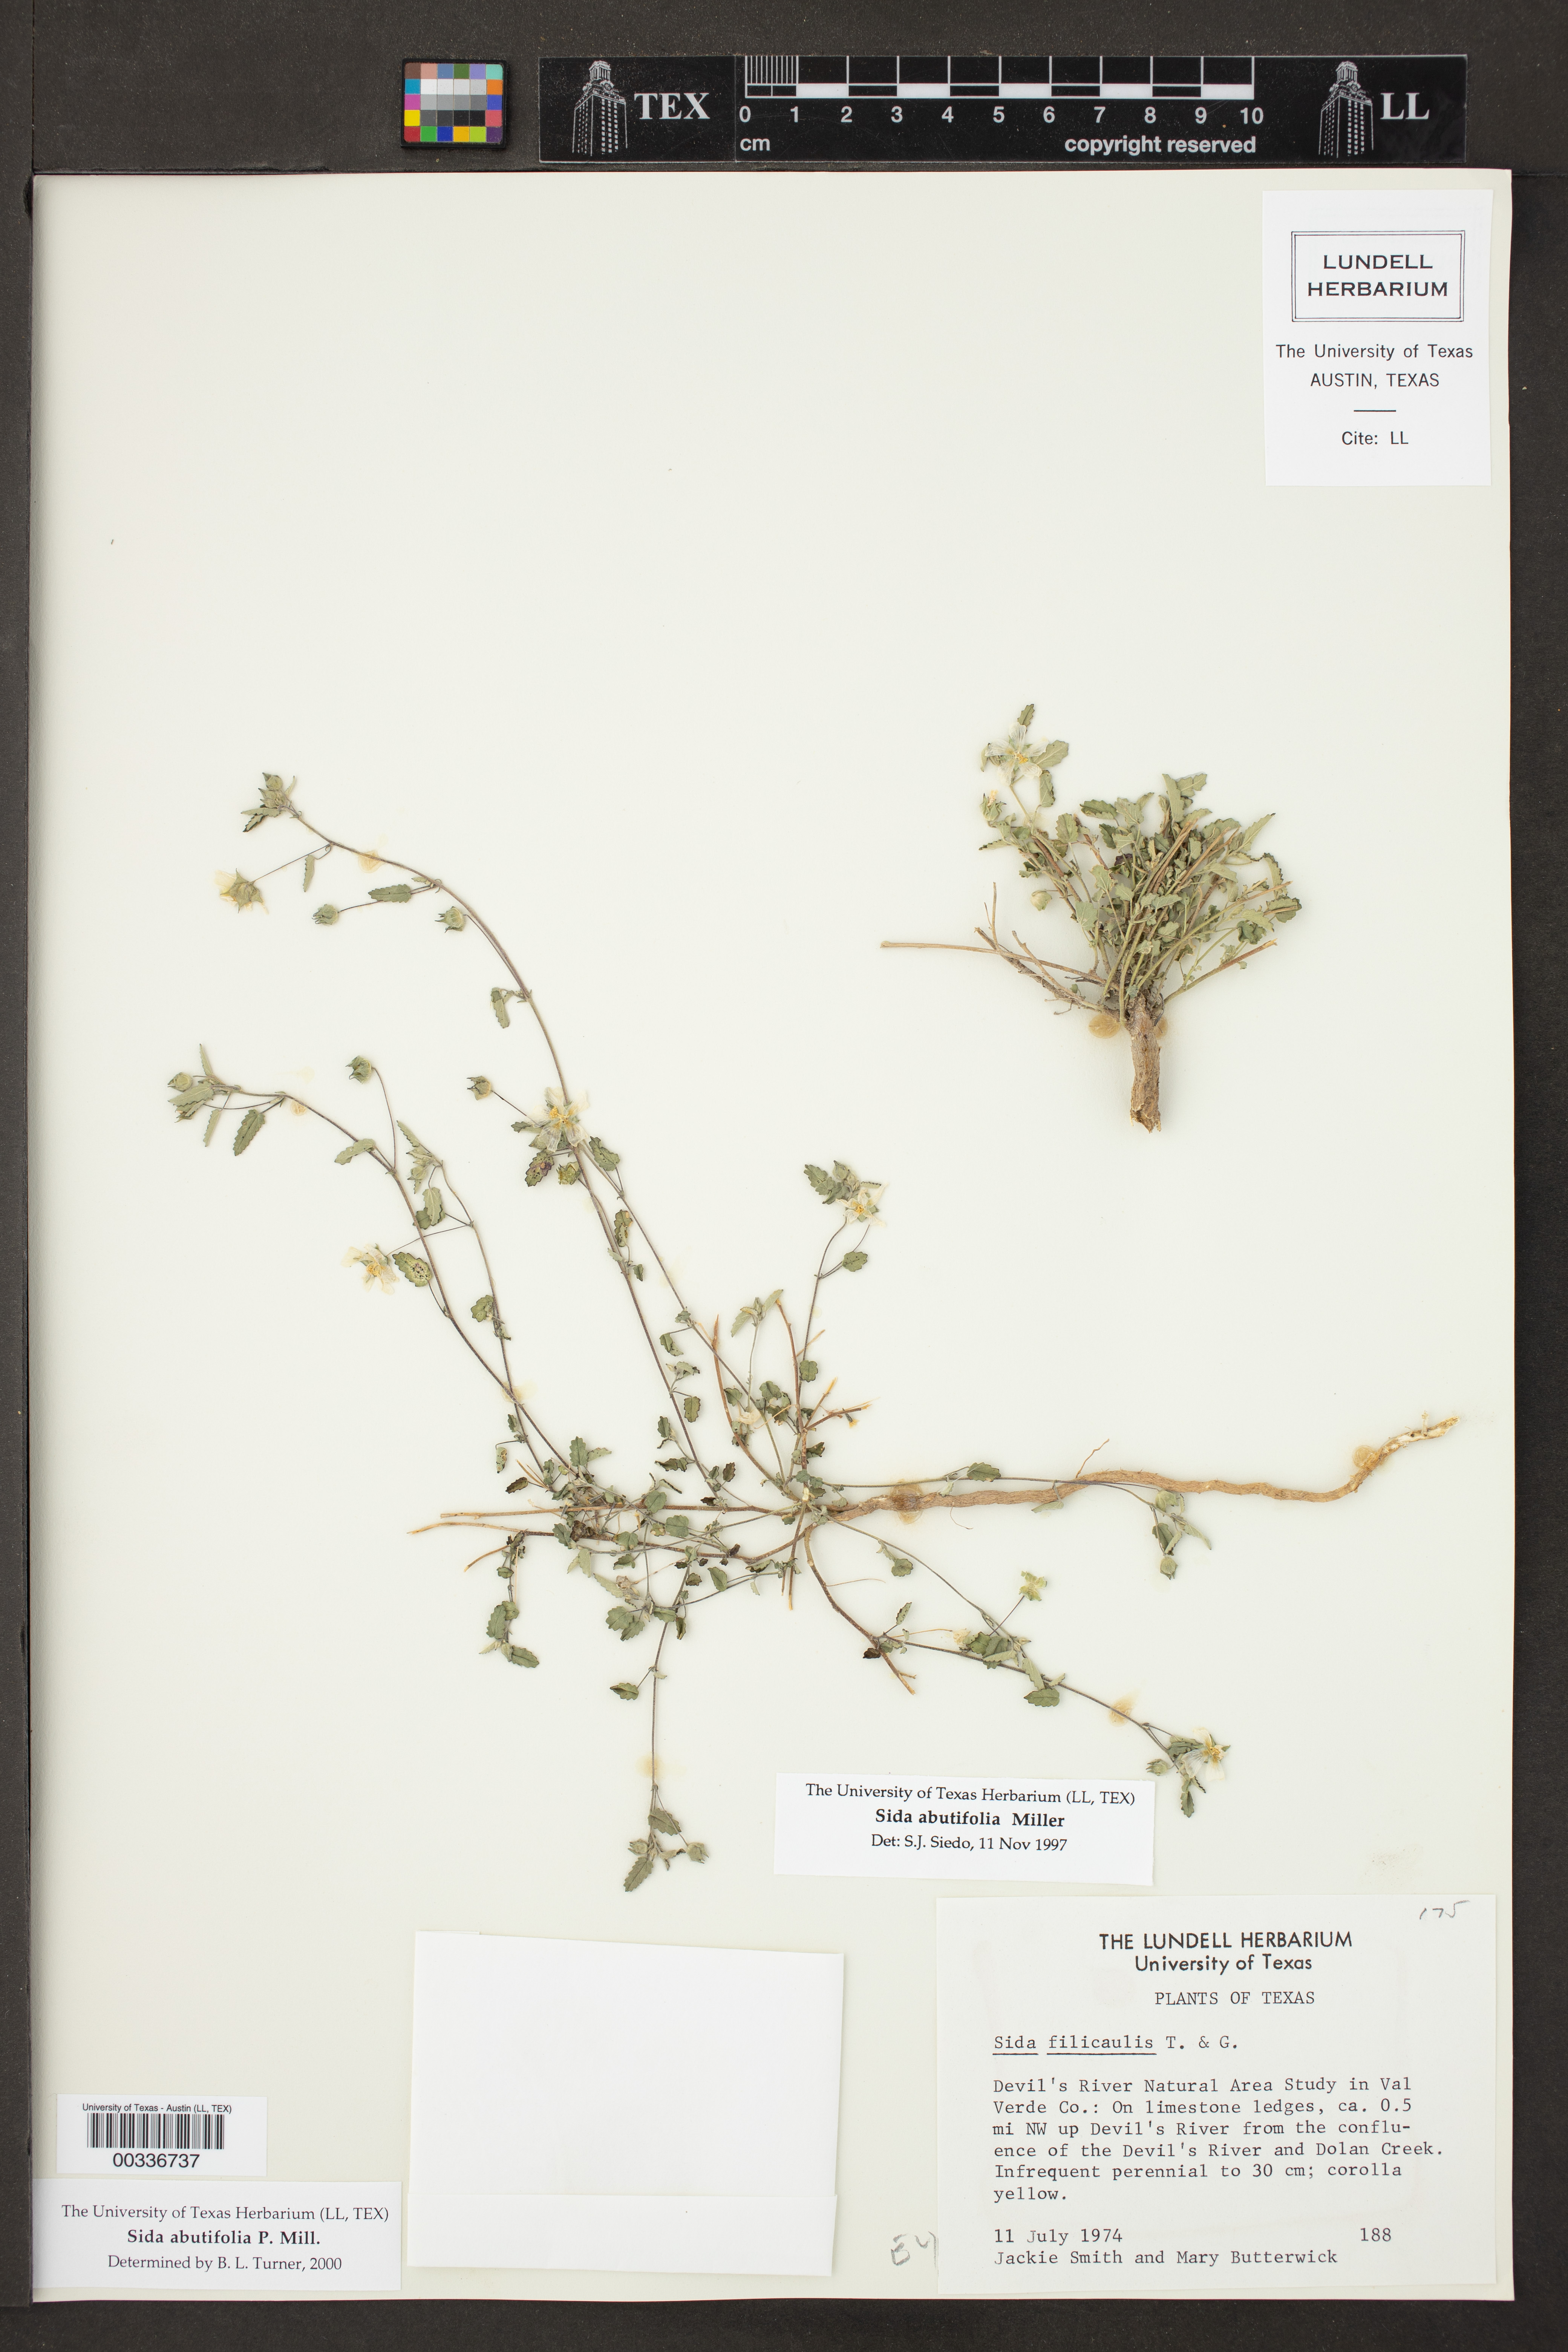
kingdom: Plantae
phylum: Tracheophyta
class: Magnoliopsida
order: Malvales
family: Malvaceae
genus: Sida
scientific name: Sida abutilifolia
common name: Spreading fanpetals
